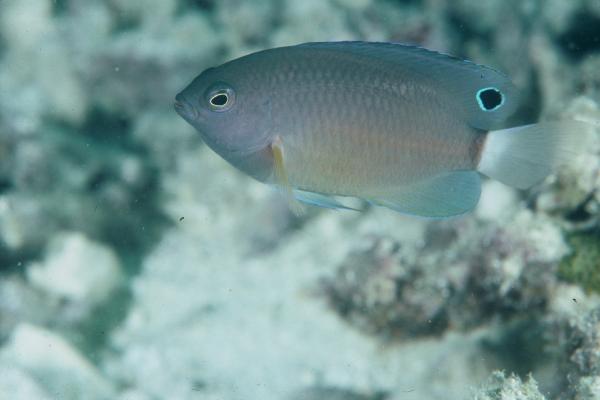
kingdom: Animalia
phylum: Chordata
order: Perciformes
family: Pomacentridae
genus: Pomacentrus
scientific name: Pomacentrus
